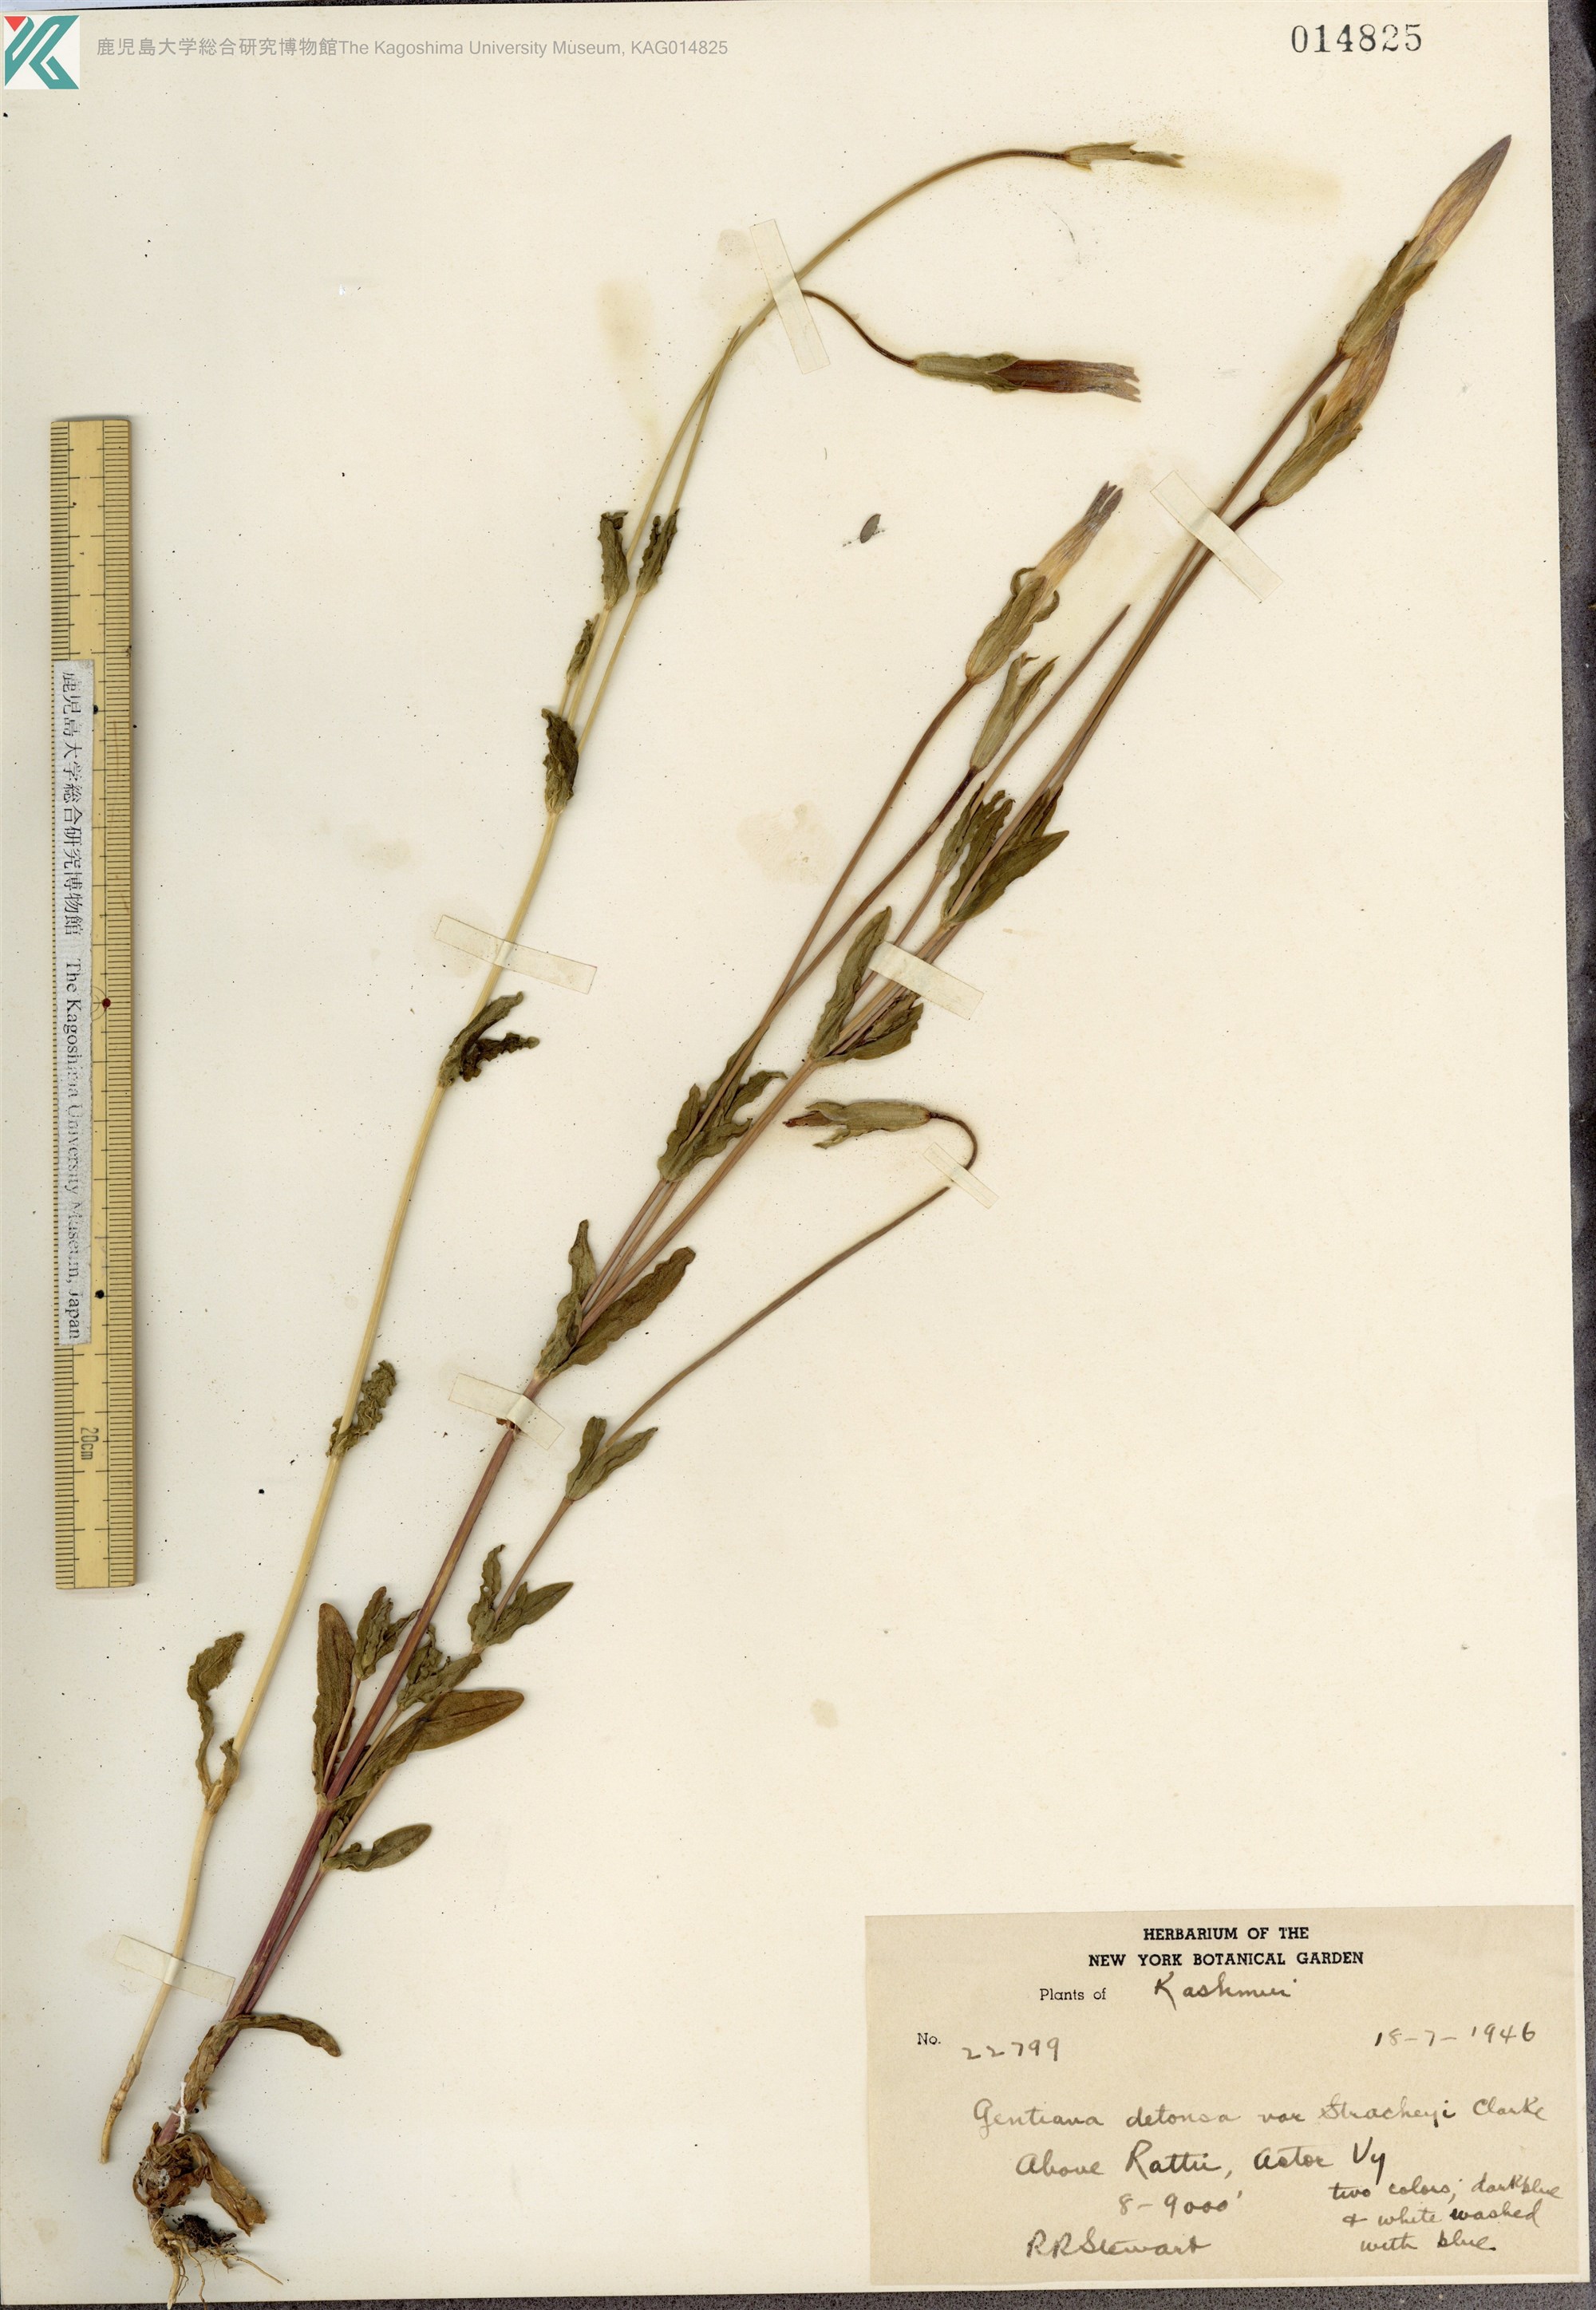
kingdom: Plantae
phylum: Tracheophyta
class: Magnoliopsida
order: Gentianales
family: Gentianaceae
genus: Gentianopsis
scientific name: Gentianopsis detonsa
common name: Fringed-gentian
